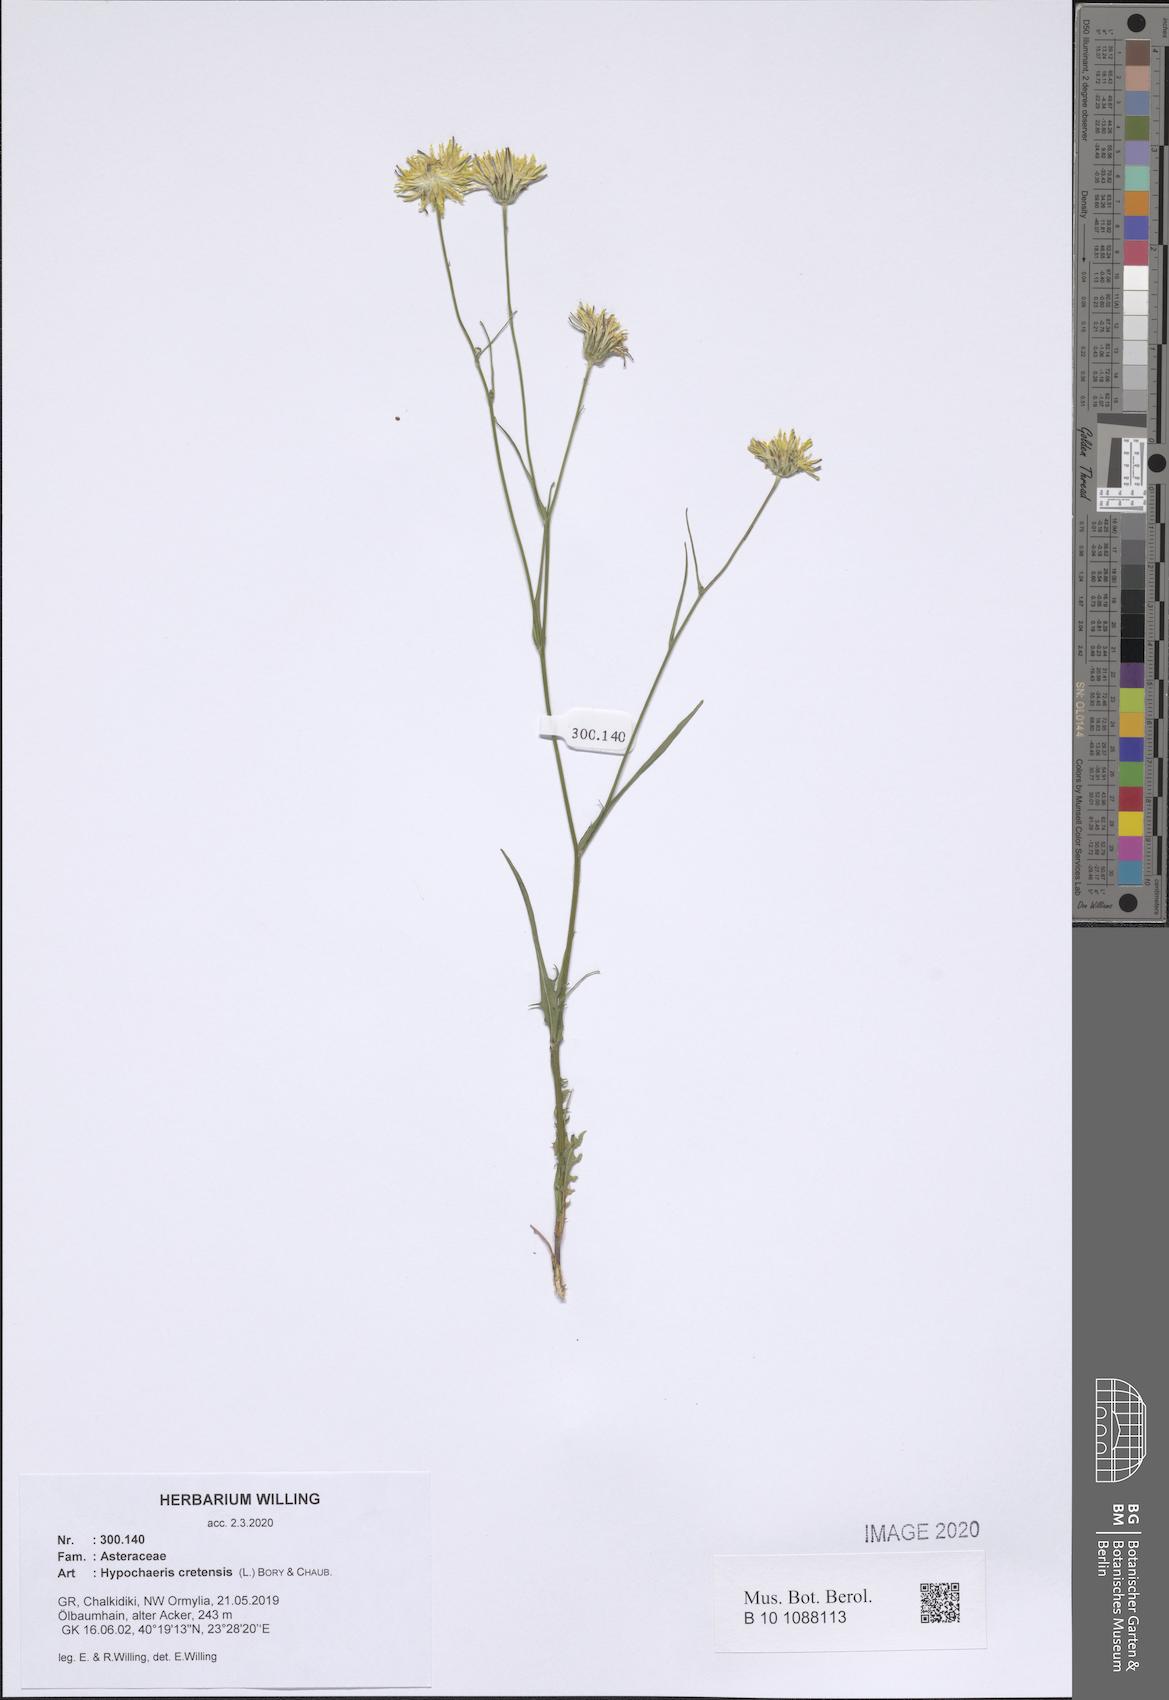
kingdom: Plantae
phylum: Tracheophyta
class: Magnoliopsida
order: Asterales
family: Asteraceae
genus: Hypochaeris
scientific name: Hypochaeris cretensis
